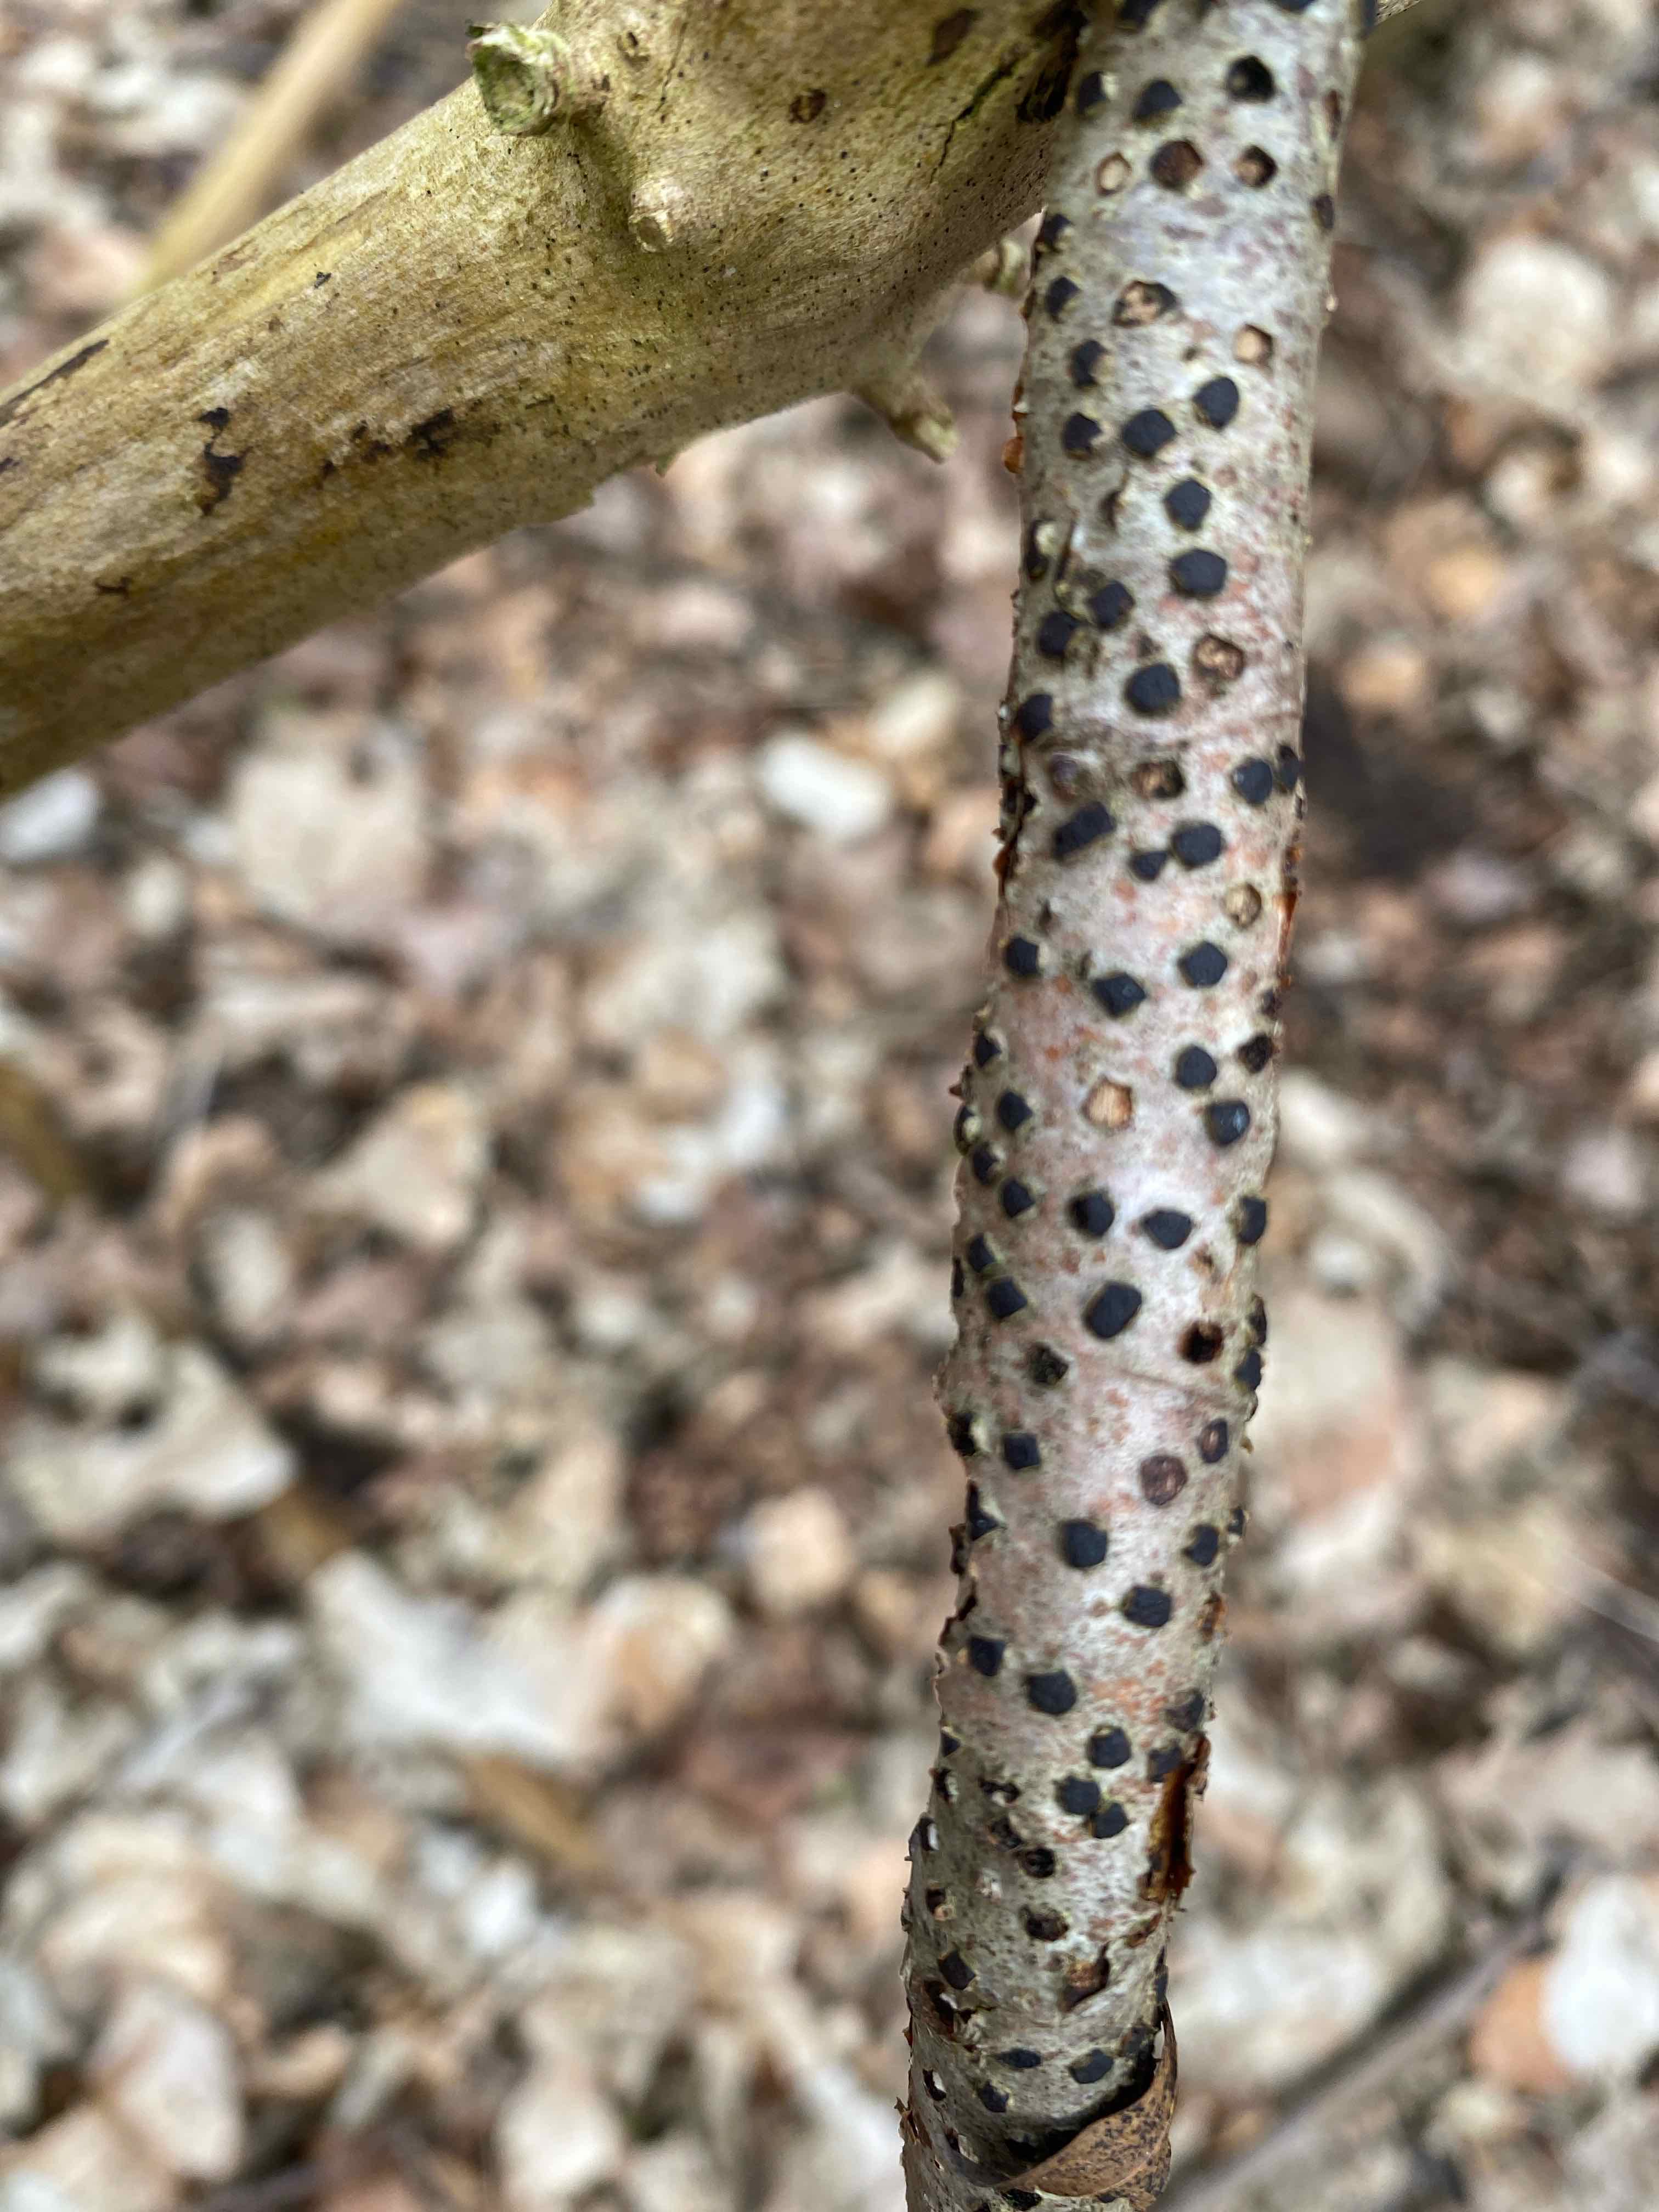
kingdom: Fungi
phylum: Ascomycota
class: Sordariomycetes
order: Xylariales
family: Diatrypaceae
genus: Diatrype
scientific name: Diatrype disciformis
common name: kant-kulskorpe
